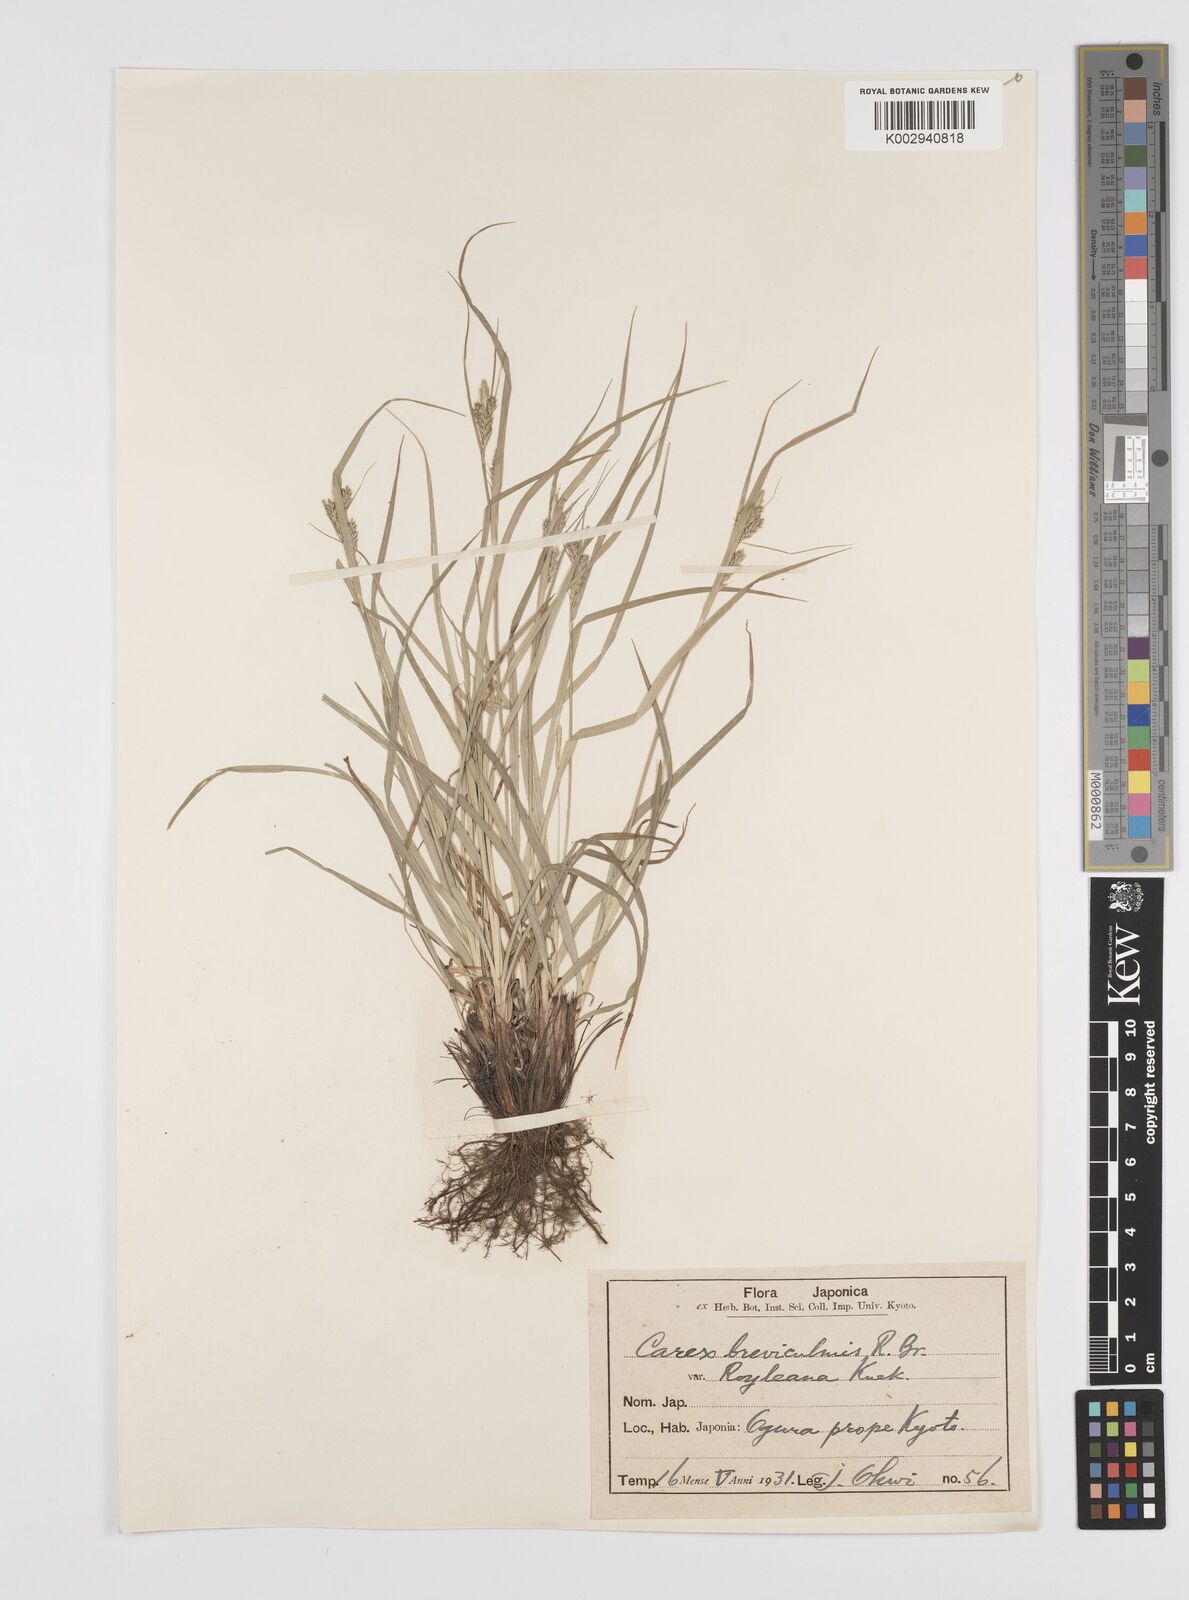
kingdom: Plantae
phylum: Tracheophyta
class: Liliopsida
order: Poales
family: Cyperaceae
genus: Carex
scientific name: Carex breviculmis
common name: Asian shortstem sedge
